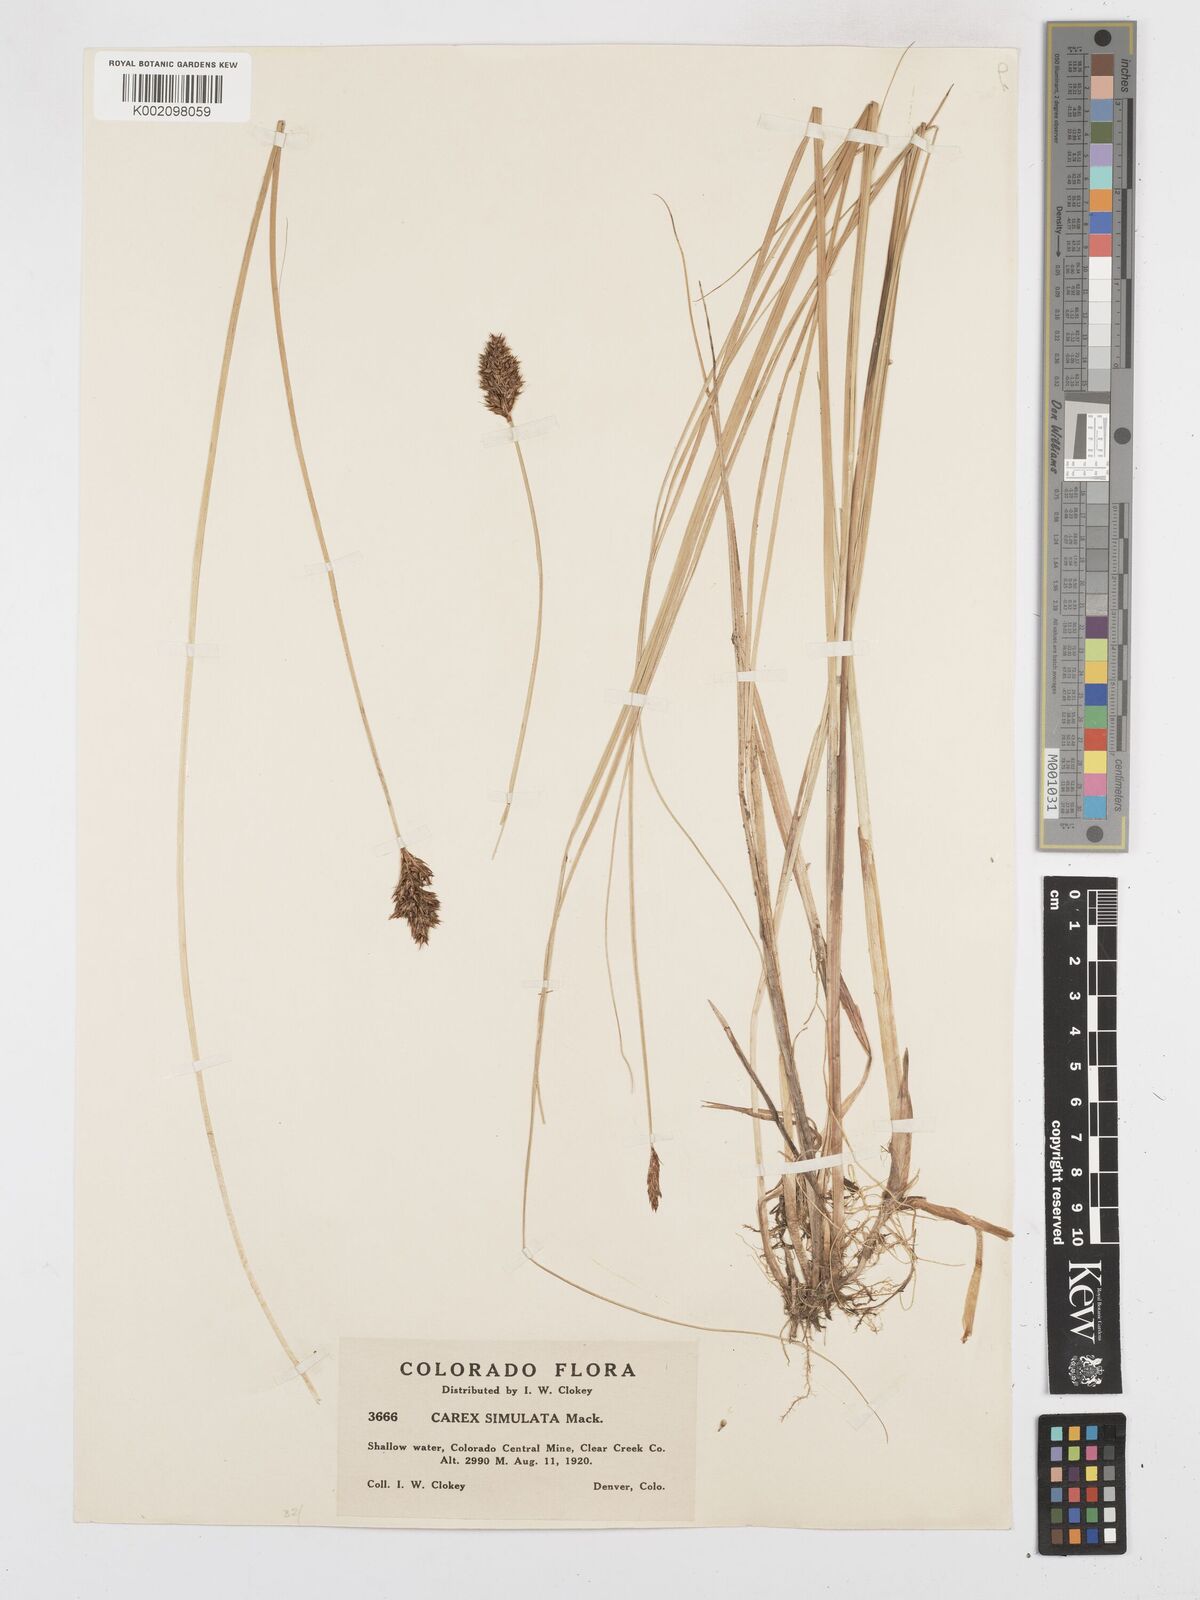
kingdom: Plantae
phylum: Tracheophyta
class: Liliopsida
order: Poales
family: Cyperaceae
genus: Carex
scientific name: Carex simulata
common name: Analogue sedge
